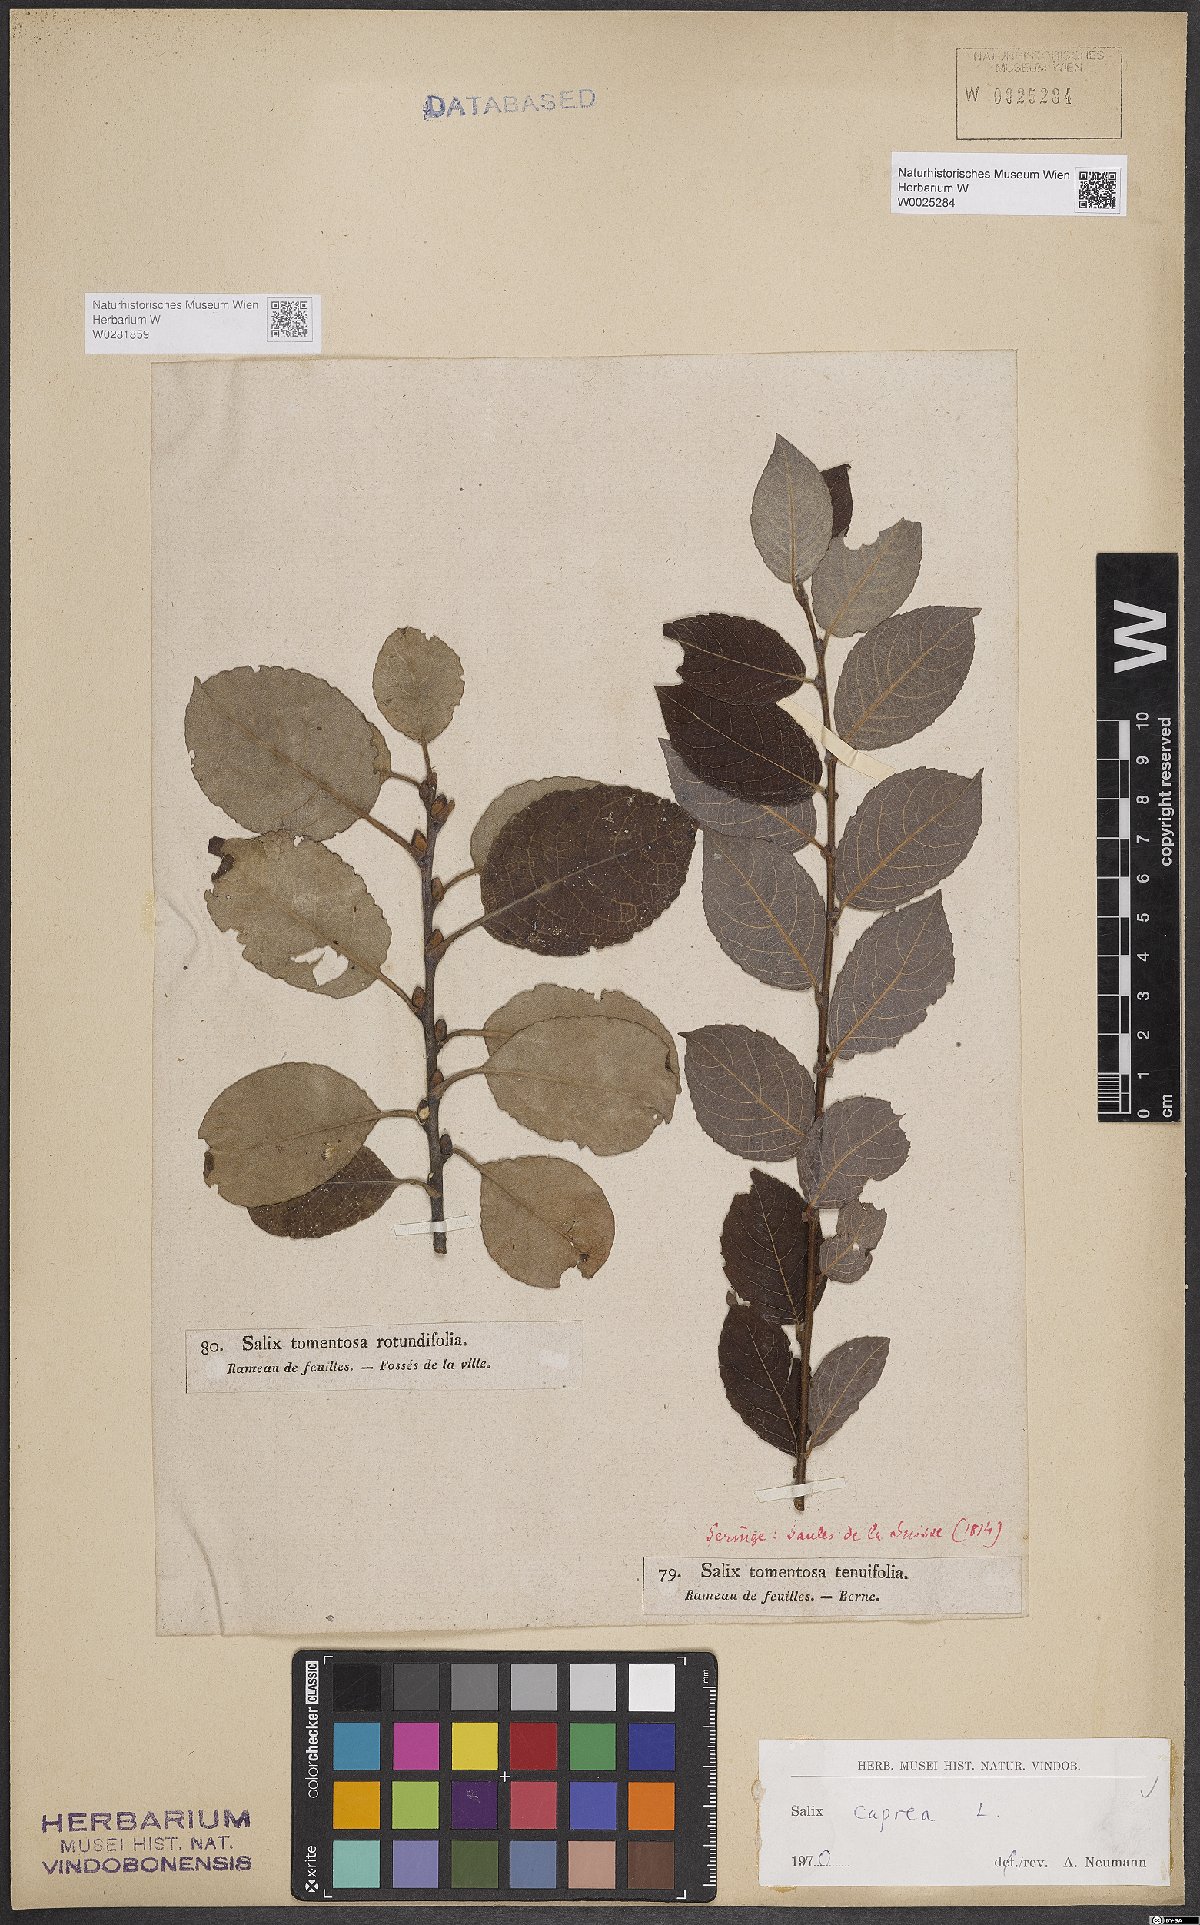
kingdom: Plantae
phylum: Tracheophyta
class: Magnoliopsida
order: Malpighiales
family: Salicaceae
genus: Salix
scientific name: Salix caprea
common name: Goat willow
